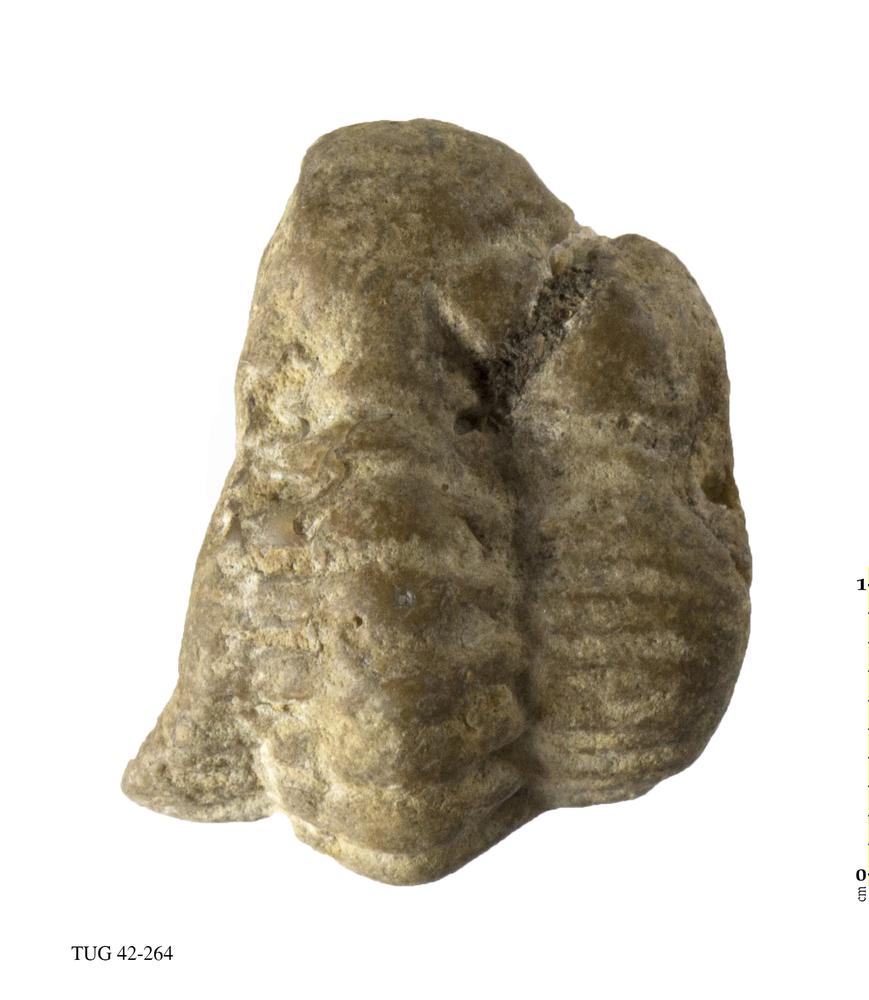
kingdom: Animalia
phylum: Arthropoda
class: Trilobita
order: Phacopida
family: Phacopidae
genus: Phacops
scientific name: Phacops
